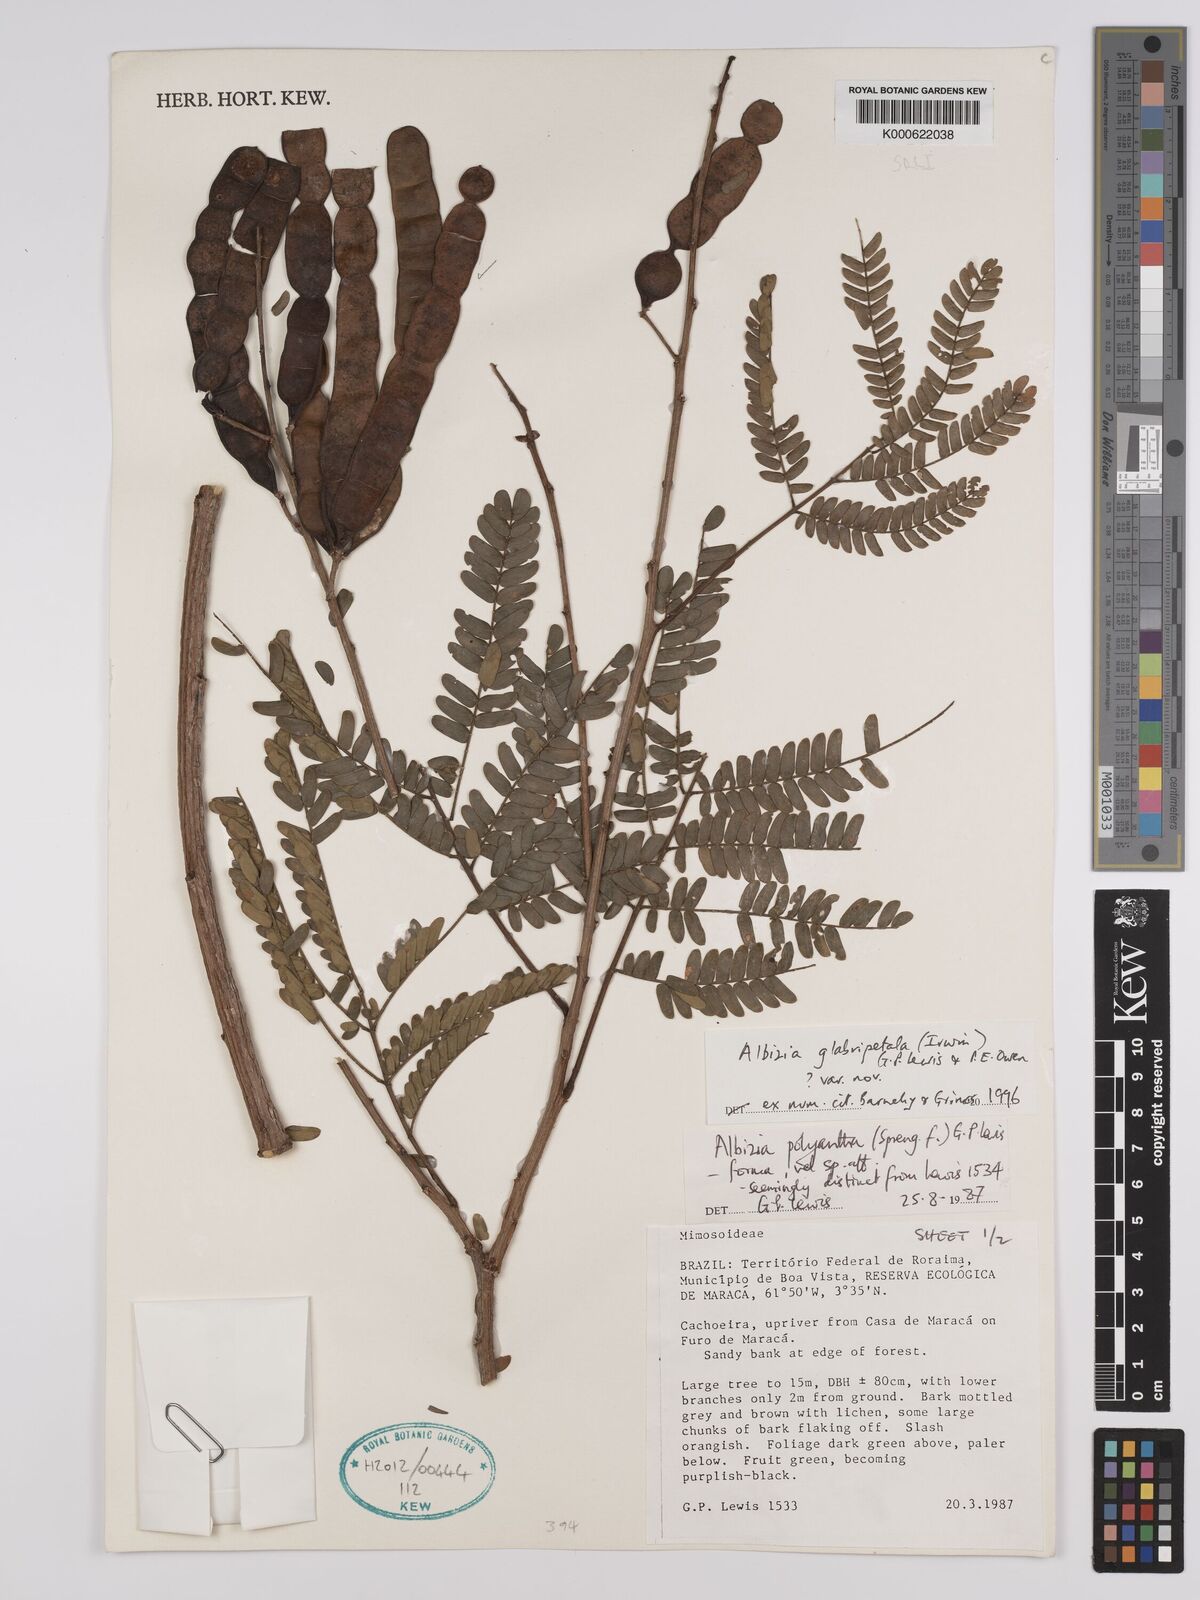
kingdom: Plantae
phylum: Tracheophyta
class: Magnoliopsida
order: Fabales
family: Fabaceae
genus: Albizia
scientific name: Albizia glabripetala
